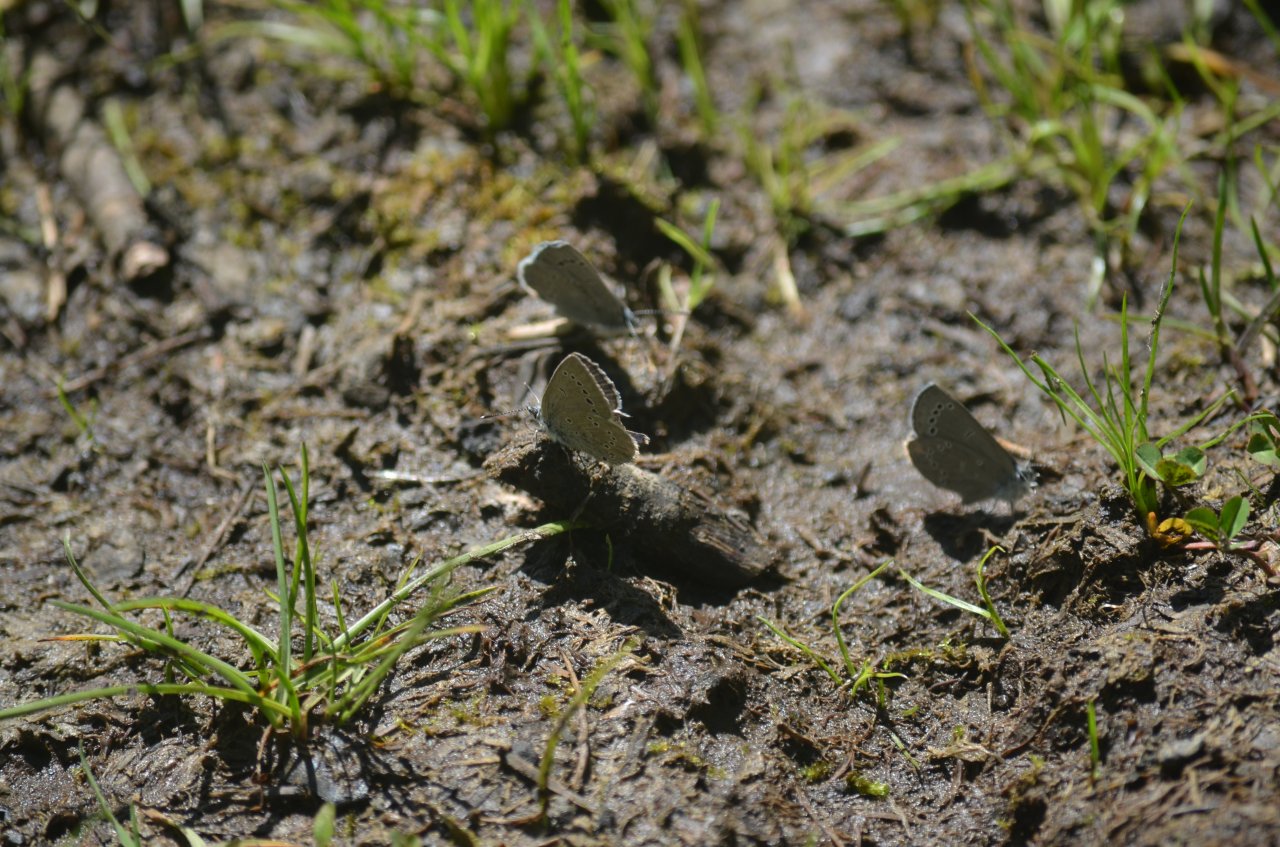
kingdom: Animalia
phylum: Arthropoda
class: Insecta
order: Lepidoptera
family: Lycaenidae
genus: Glaucopsyche
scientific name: Glaucopsyche lygdamus
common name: Silvery Blue
